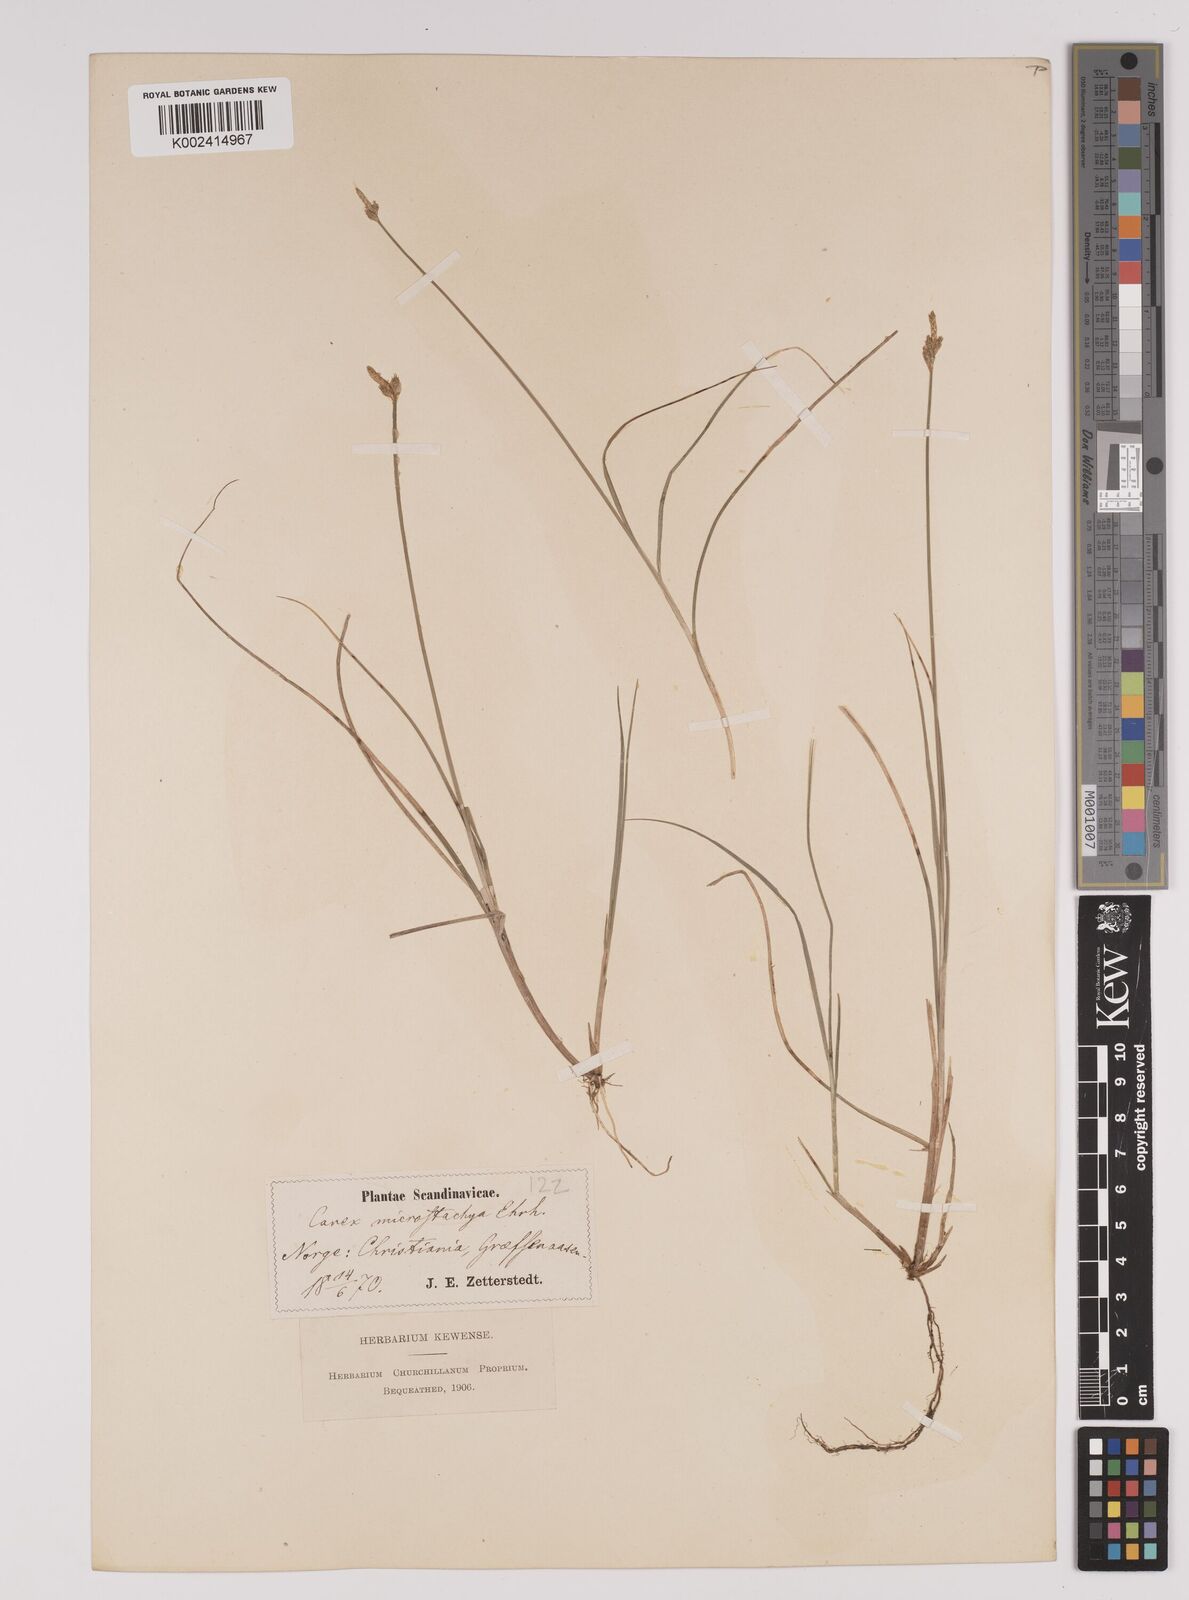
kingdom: Plantae
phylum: Tracheophyta
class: Liliopsida
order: Poales
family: Cyperaceae
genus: Carex
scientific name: Carex dioica
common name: Dioecious sedge
